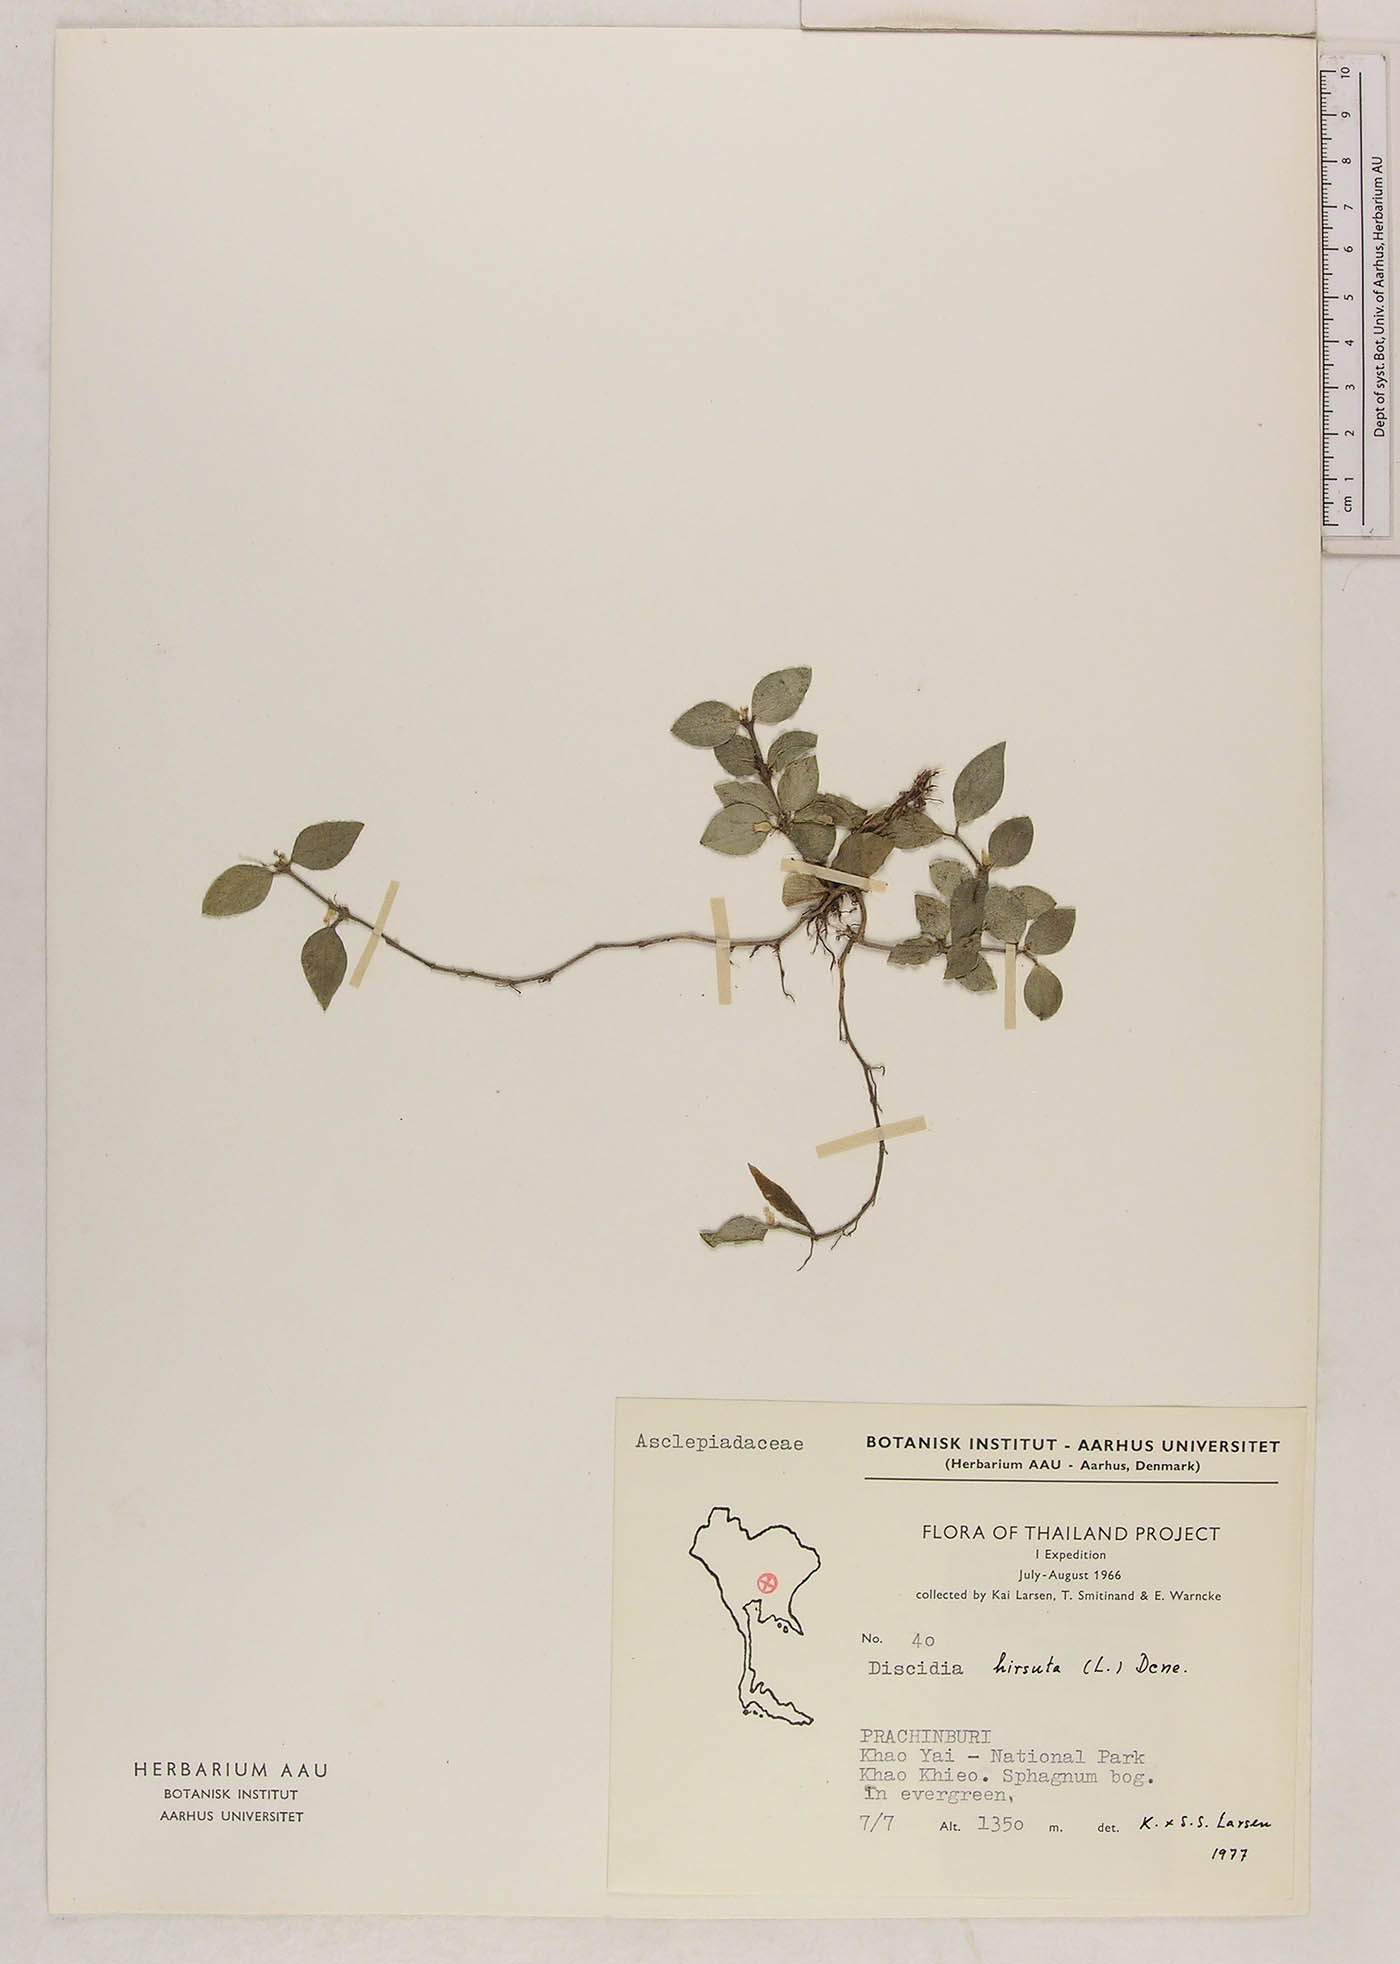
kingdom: Plantae
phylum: Tracheophyta
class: Magnoliopsida
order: Gentianales
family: Apocynaceae
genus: Dischidia
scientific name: Dischidia rimicola
